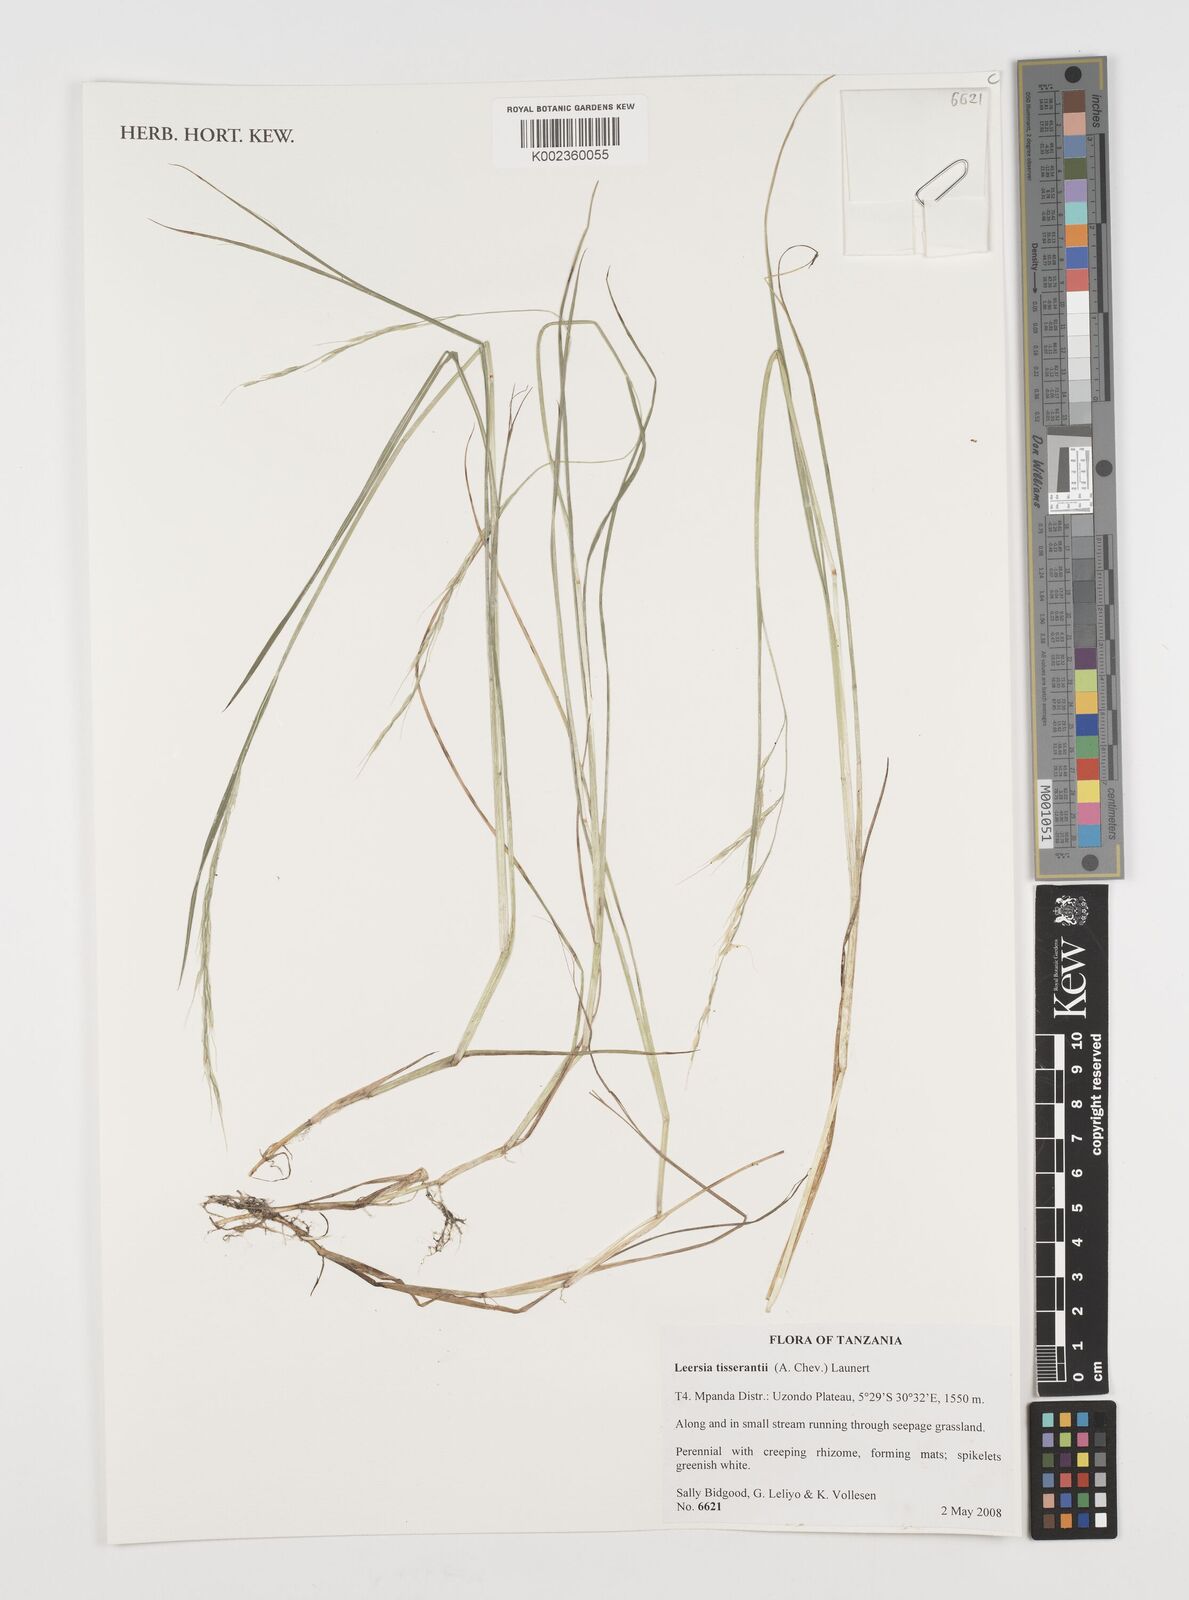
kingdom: Plantae
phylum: Tracheophyta
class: Liliopsida
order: Poales
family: Poaceae
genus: Leersia
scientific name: Leersia tisserantii
